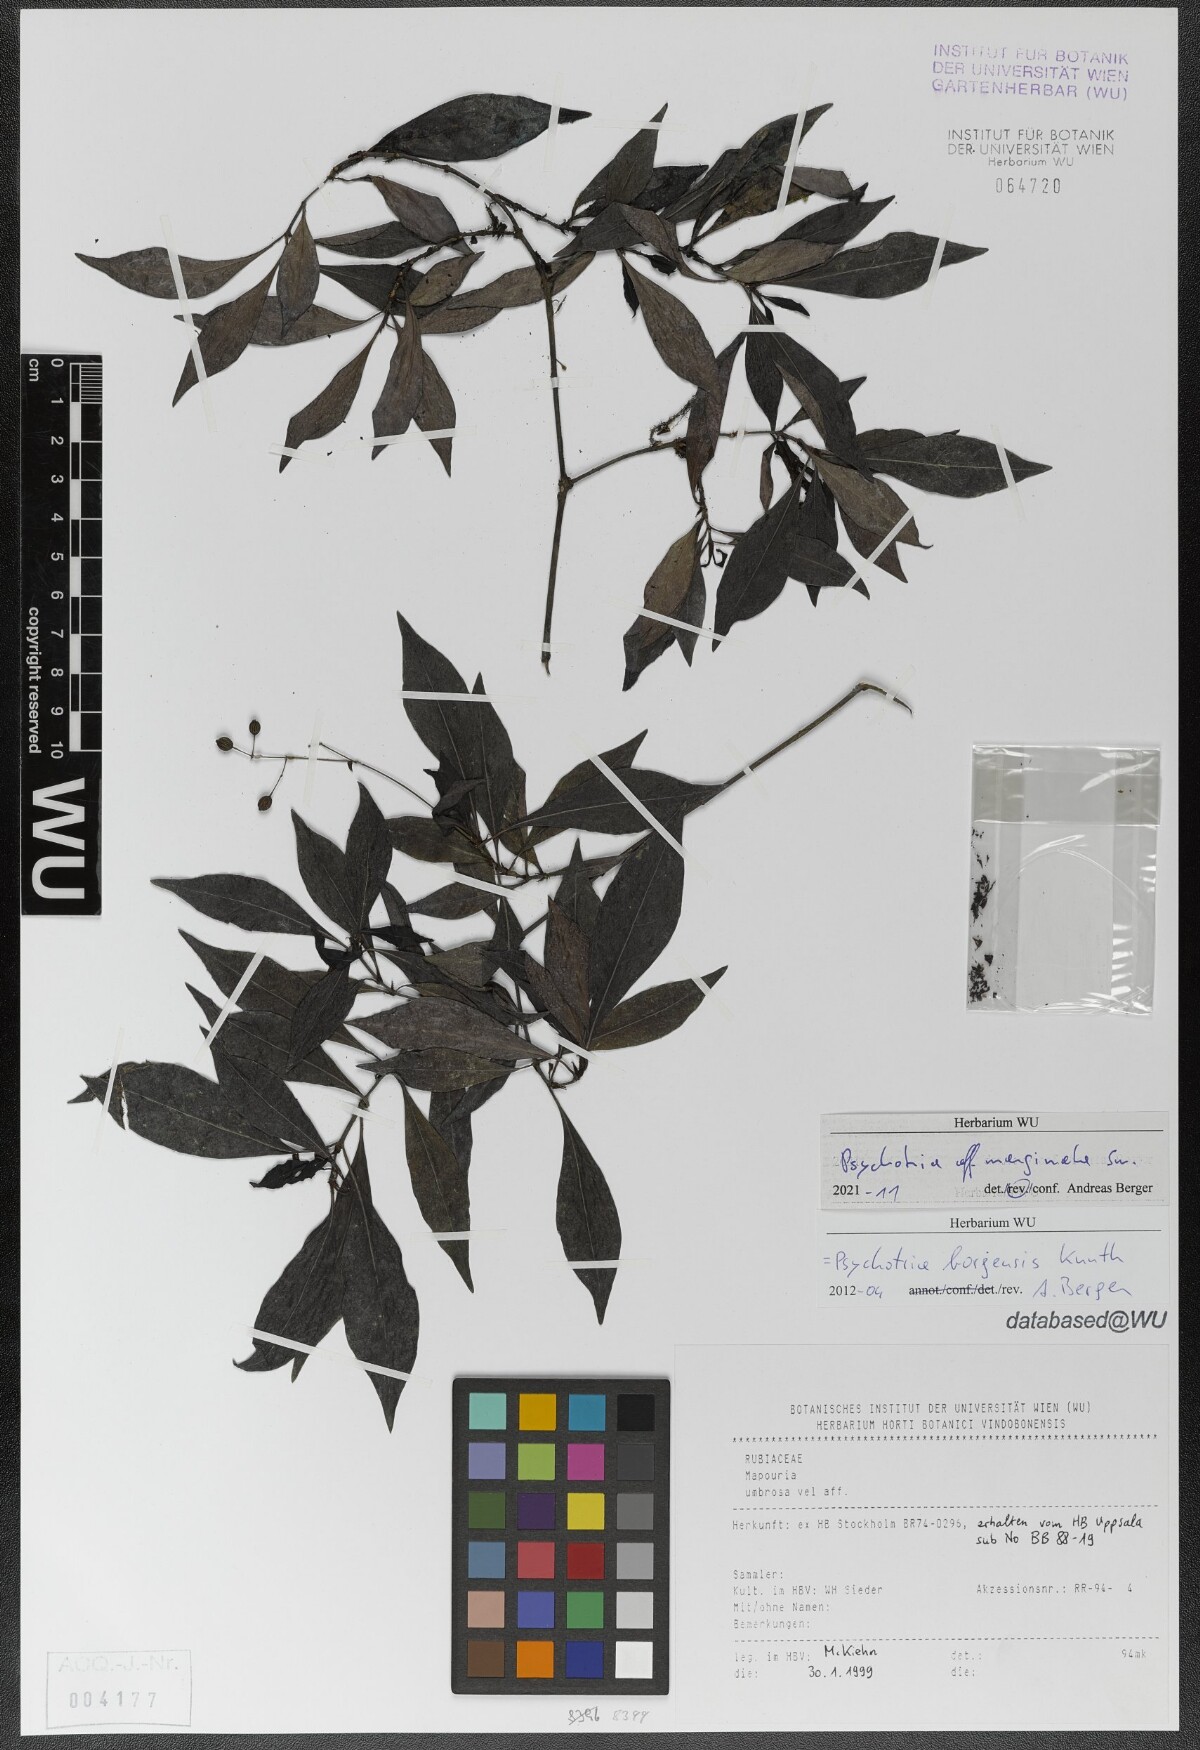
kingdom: Plantae
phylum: Tracheophyta
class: Magnoliopsida
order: Gentianales
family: Rubiaceae
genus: Psychotria
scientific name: Psychotria marginata
